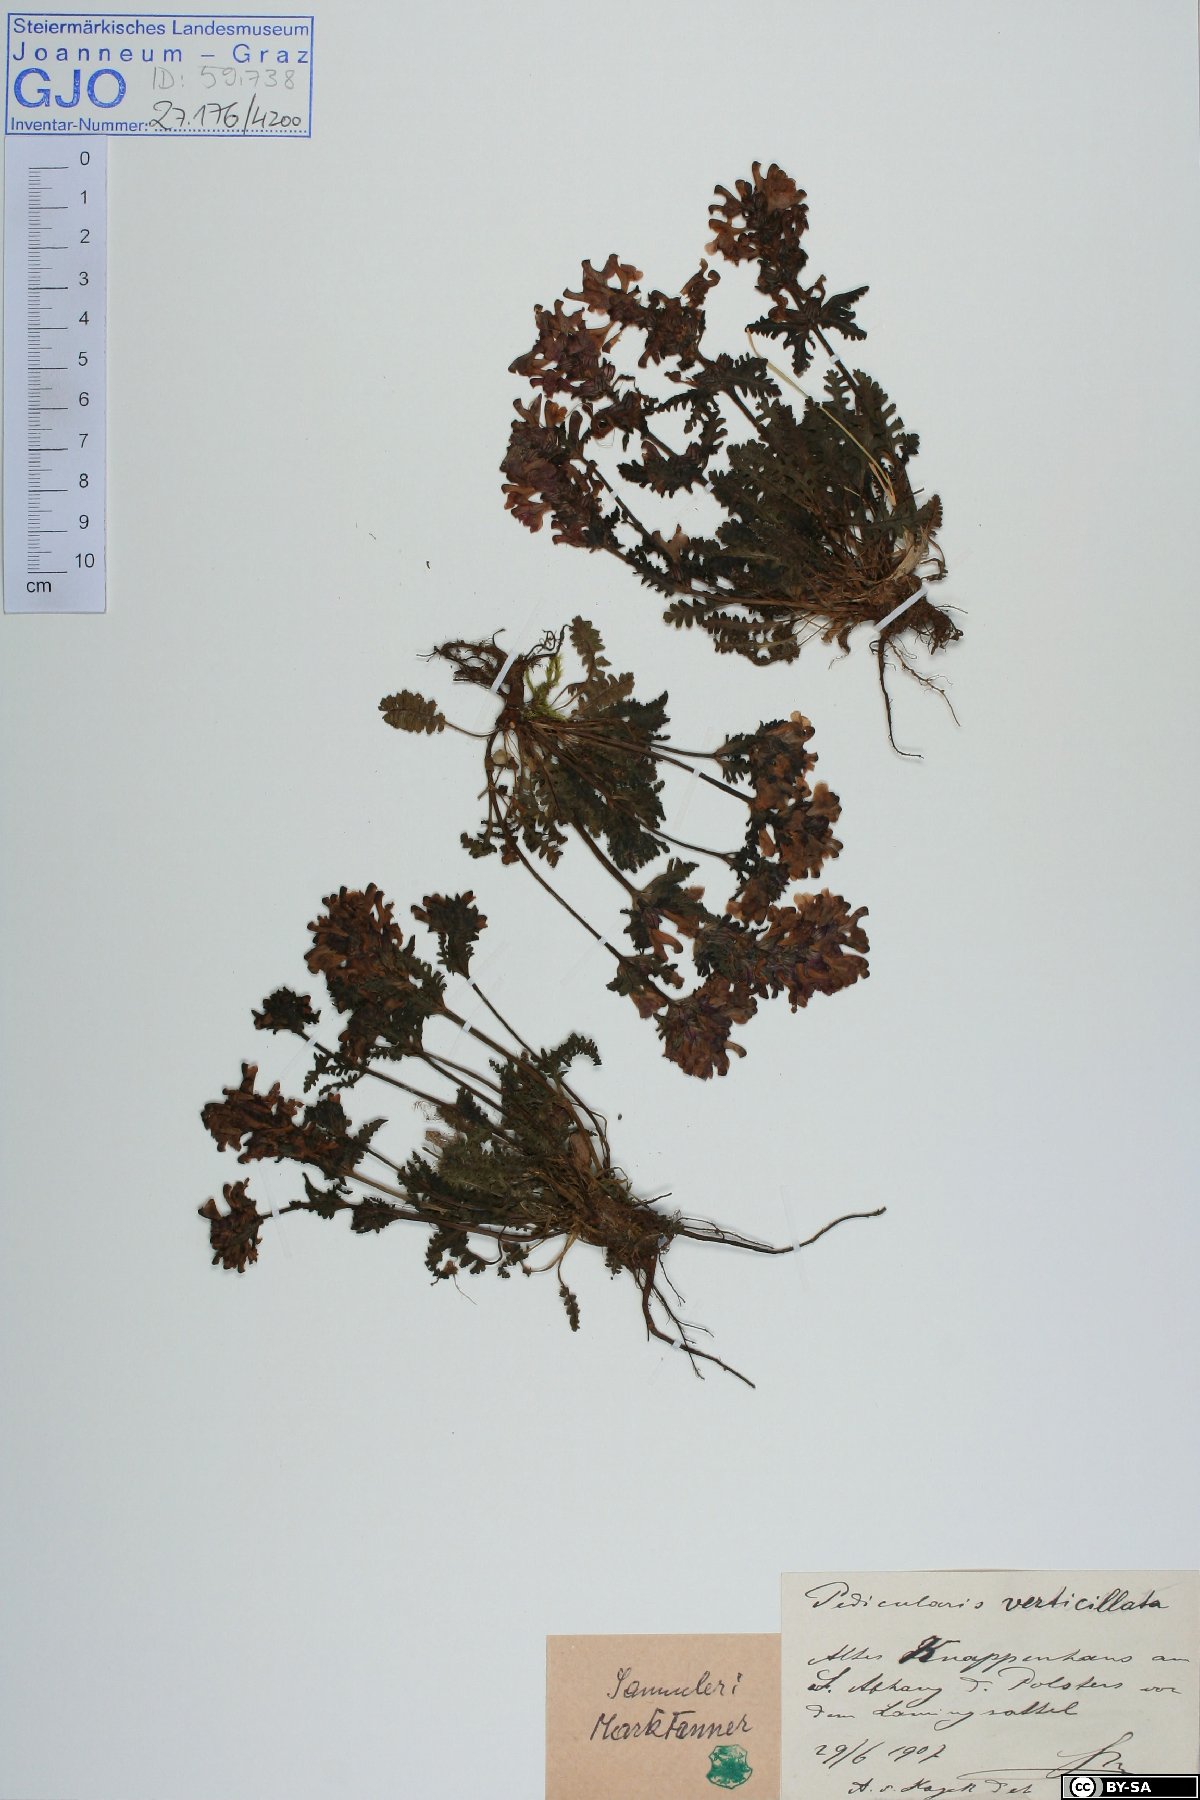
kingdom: Plantae
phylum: Tracheophyta
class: Magnoliopsida
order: Lamiales
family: Orobanchaceae
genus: Pedicularis
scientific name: Pedicularis verticillata
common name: Whorled lousewort
